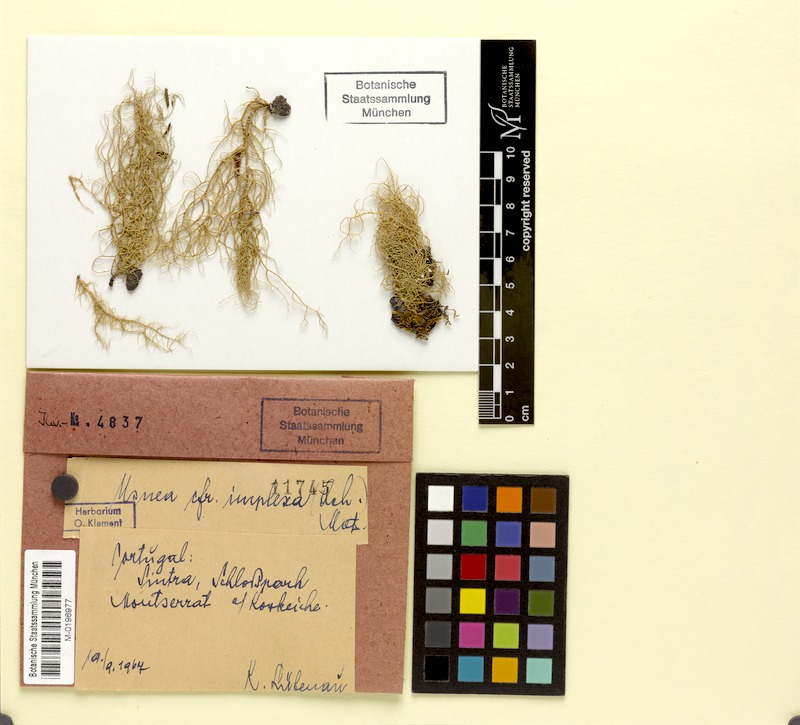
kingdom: Fungi
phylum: Ascomycota
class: Lecanoromycetes
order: Lecanorales
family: Parmeliaceae
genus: Usnea
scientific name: Usnea subimplexa
